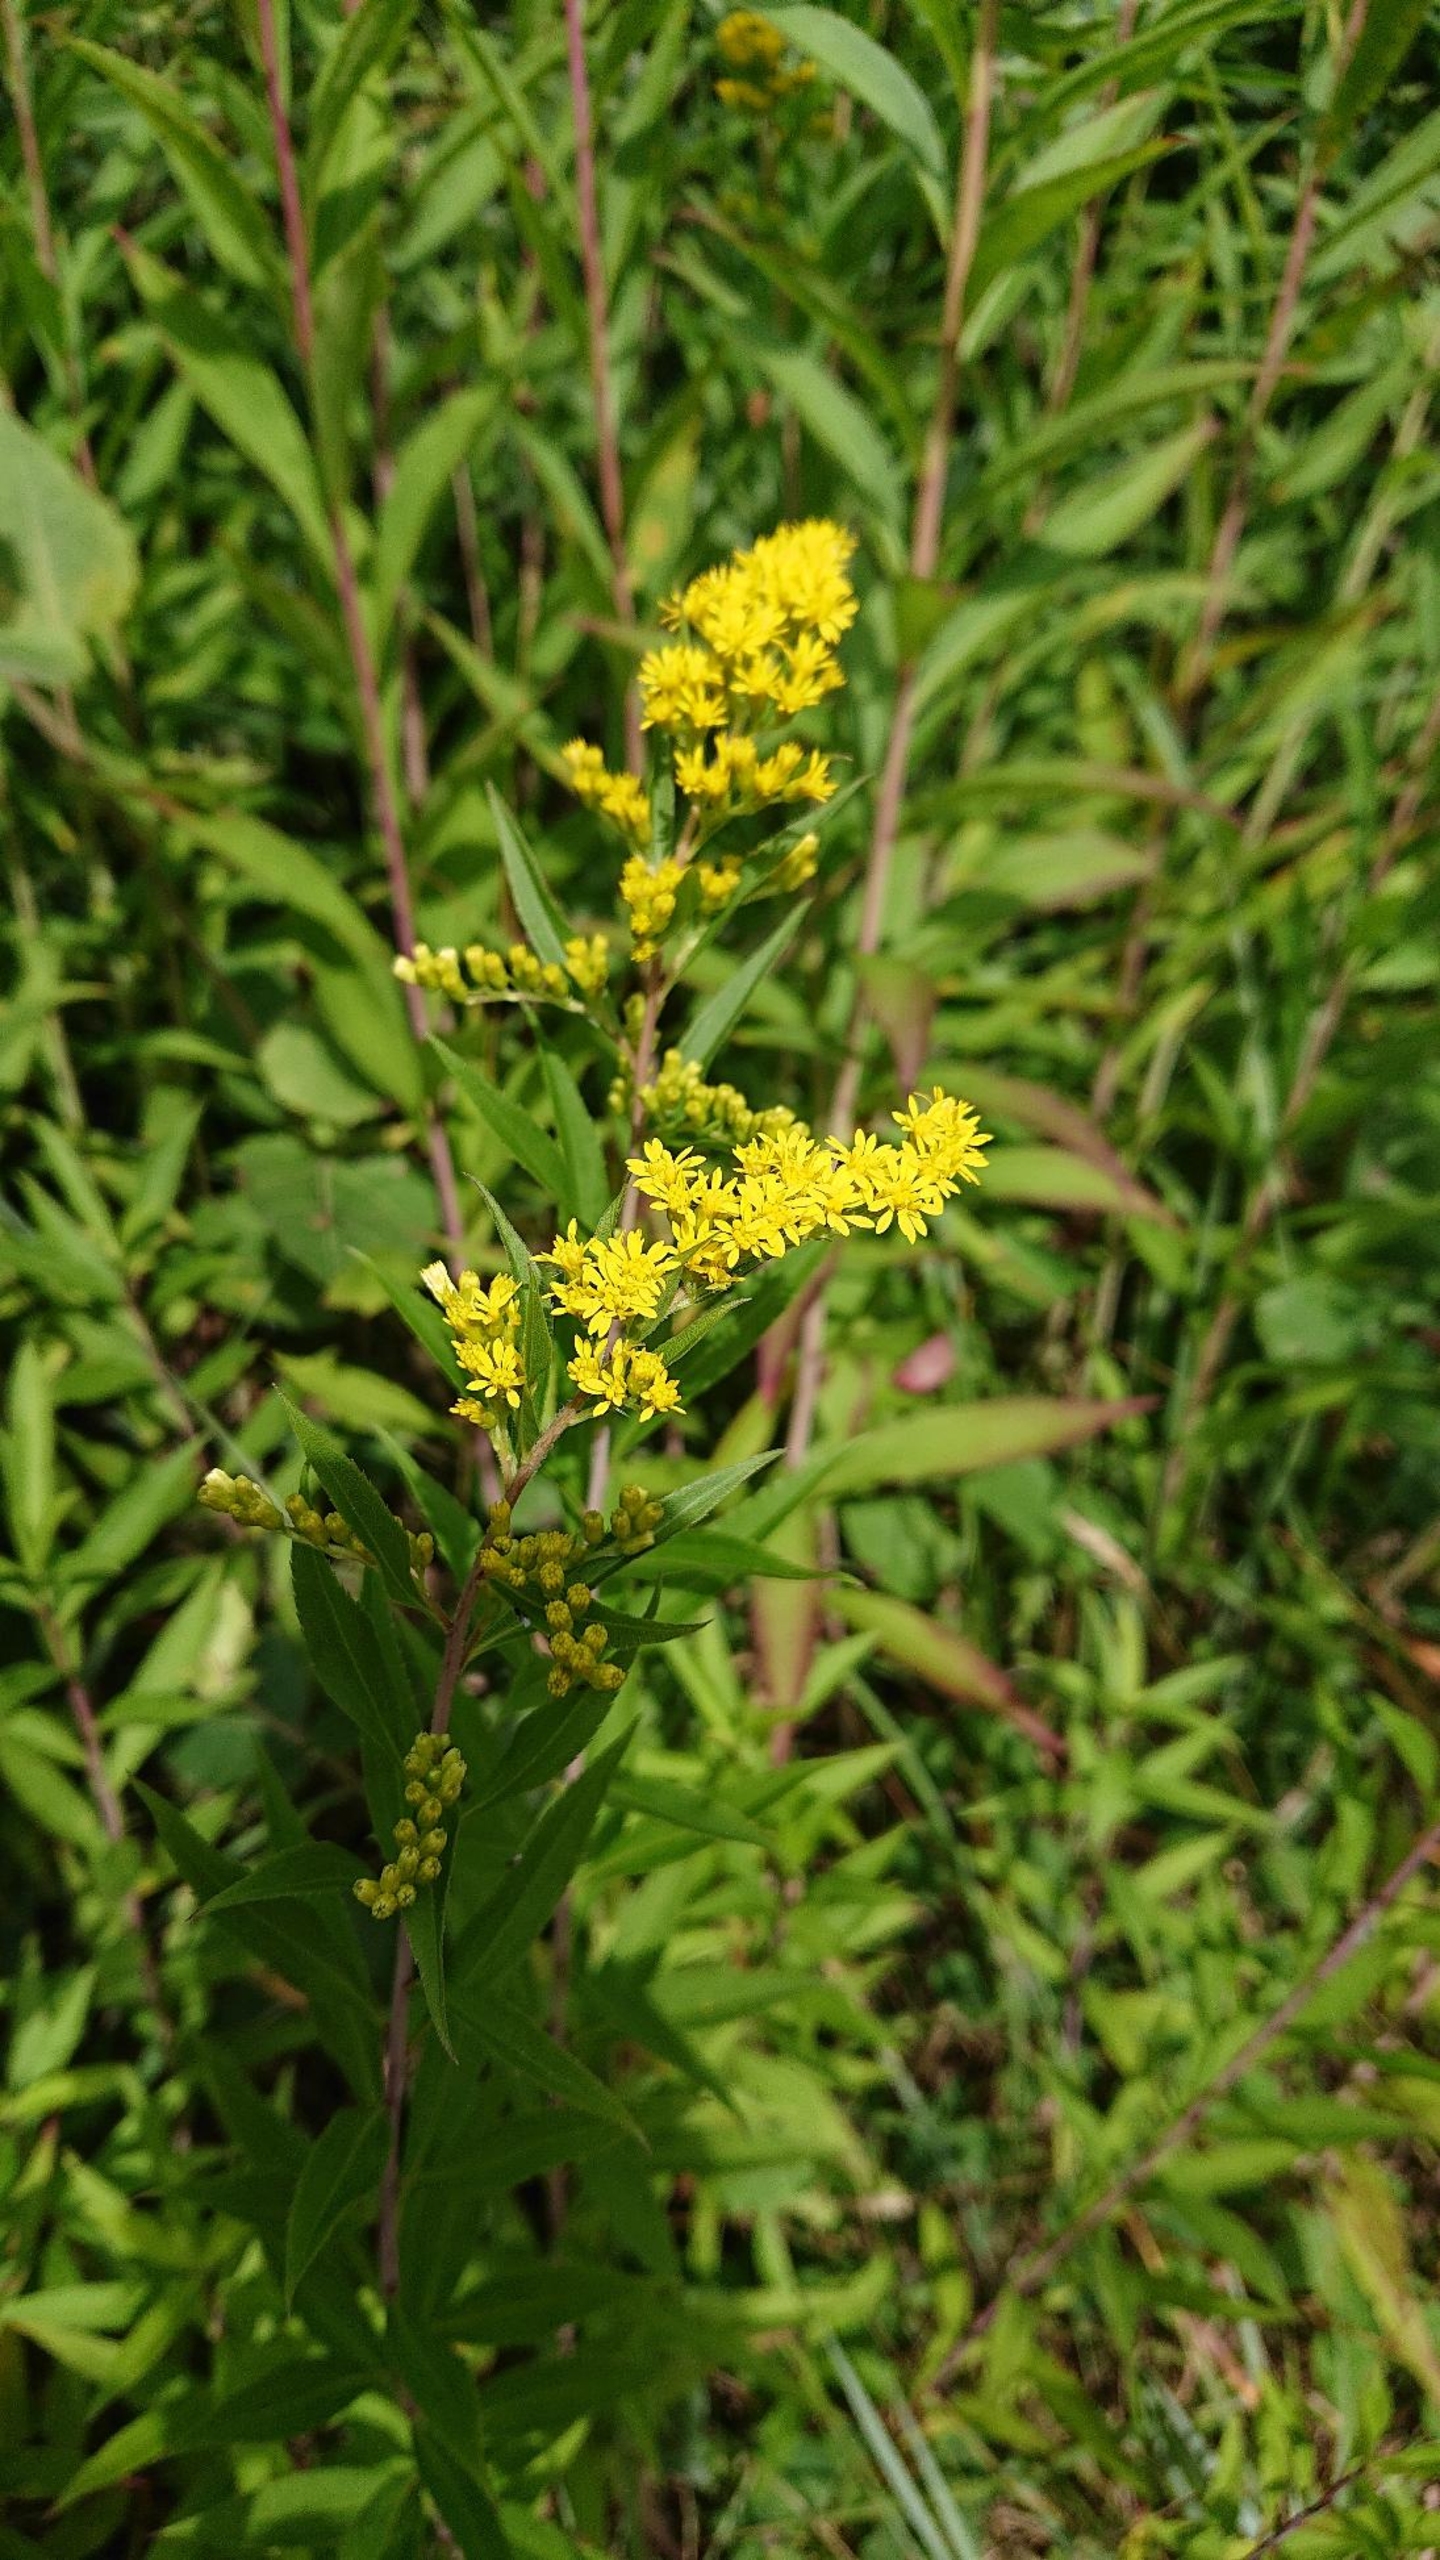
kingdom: Plantae
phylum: Tracheophyta
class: Magnoliopsida
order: Asterales
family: Asteraceae
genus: Solidago
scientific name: Solidago canadensis
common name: Kanadisk gyldenris
